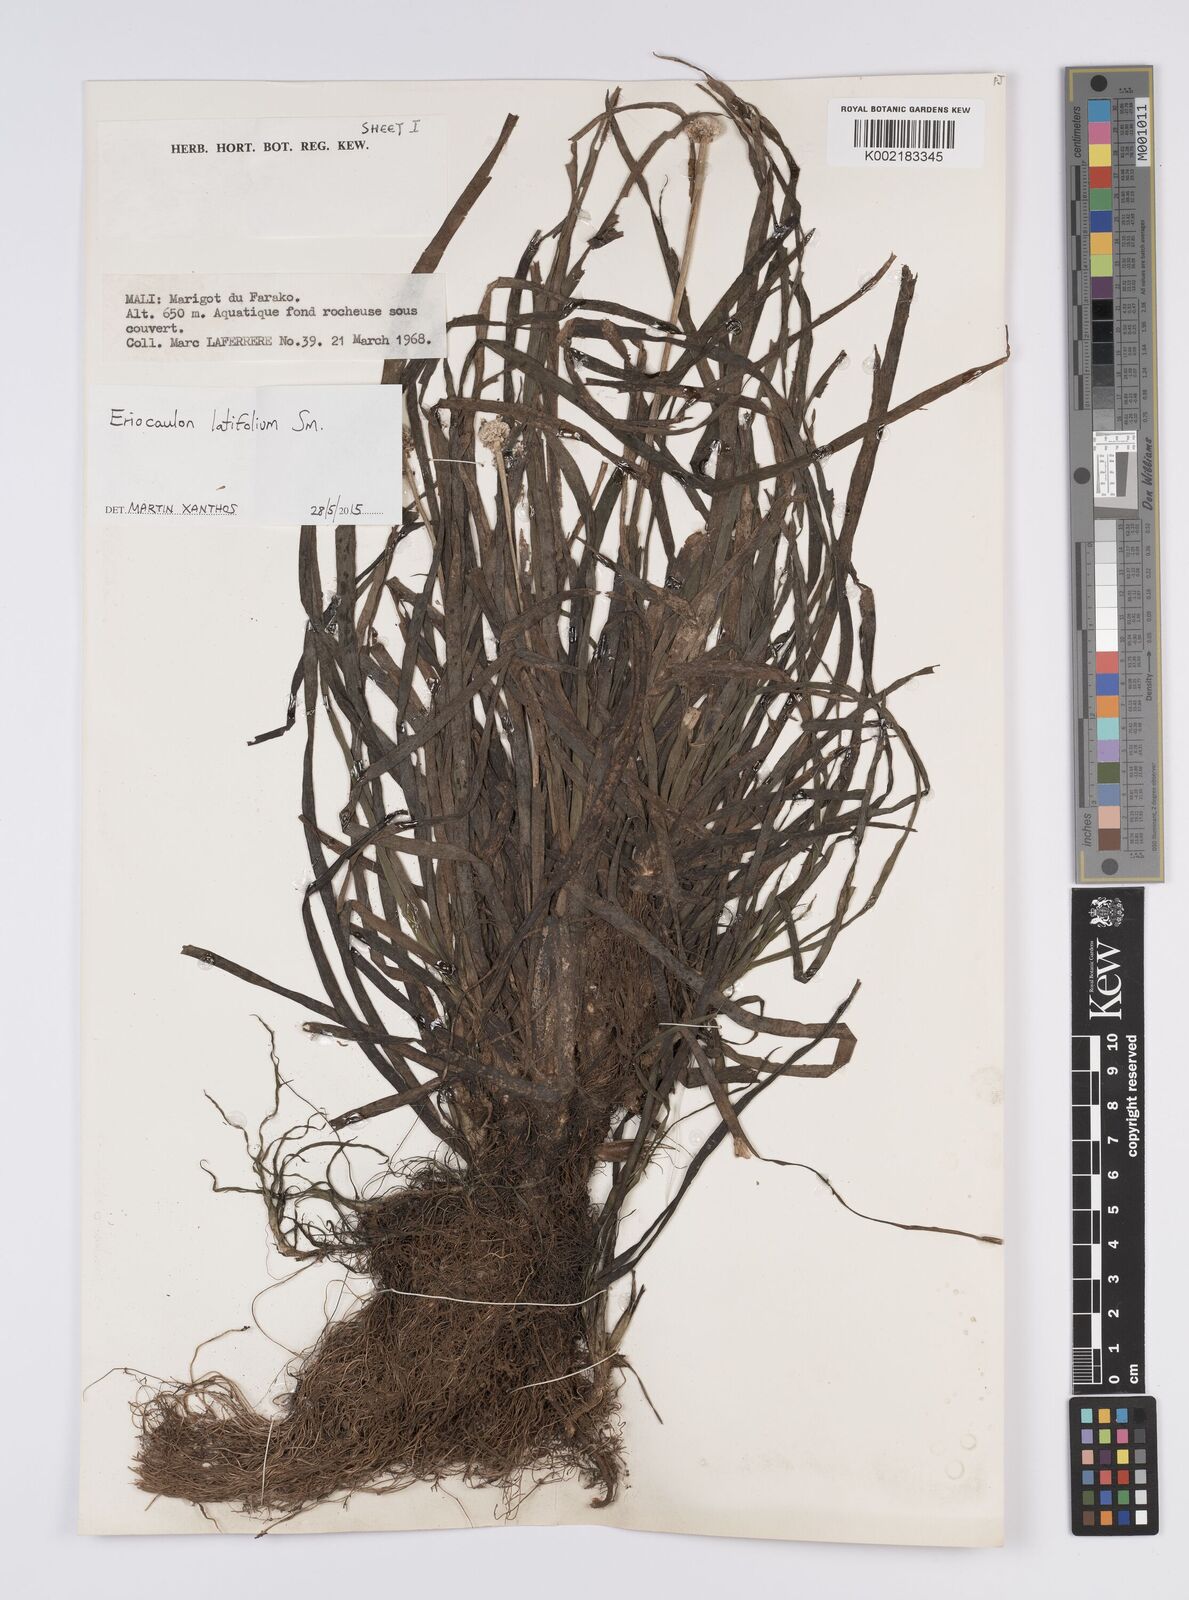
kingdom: Plantae
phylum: Tracheophyta
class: Liliopsida
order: Poales
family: Eriocaulaceae
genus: Eriocaulon
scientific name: Eriocaulon latifolium
